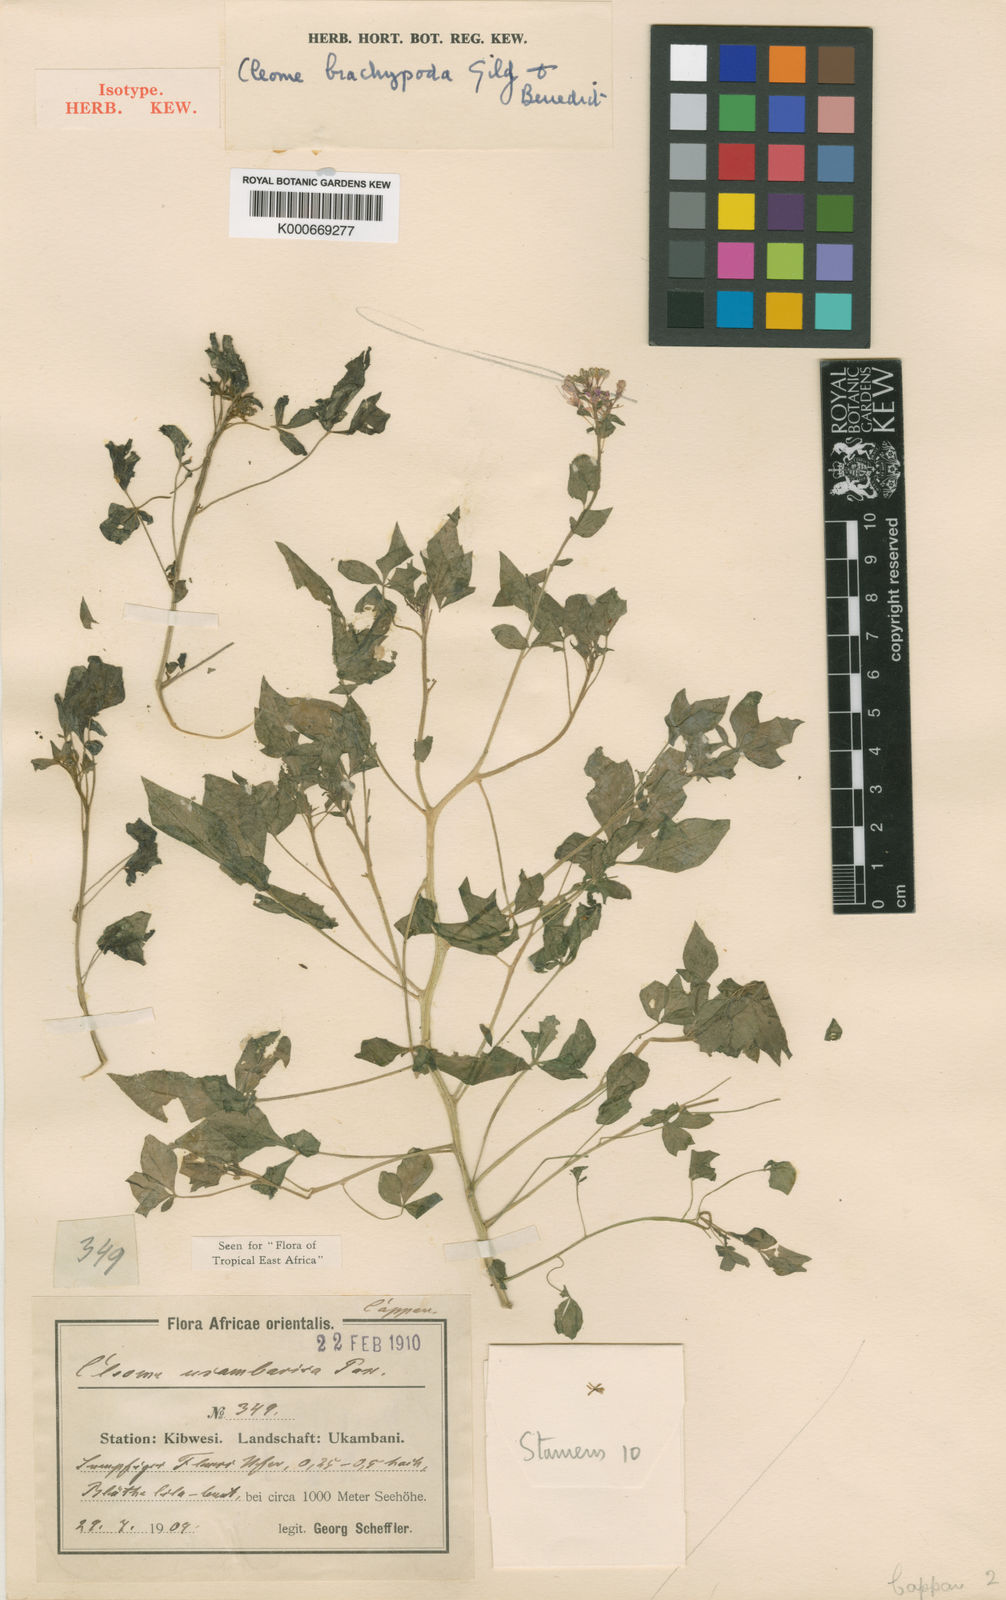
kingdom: Plantae
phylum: Tracheophyta
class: Magnoliopsida
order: Brassicales
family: Cleomaceae
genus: Cleome
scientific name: Cleome
